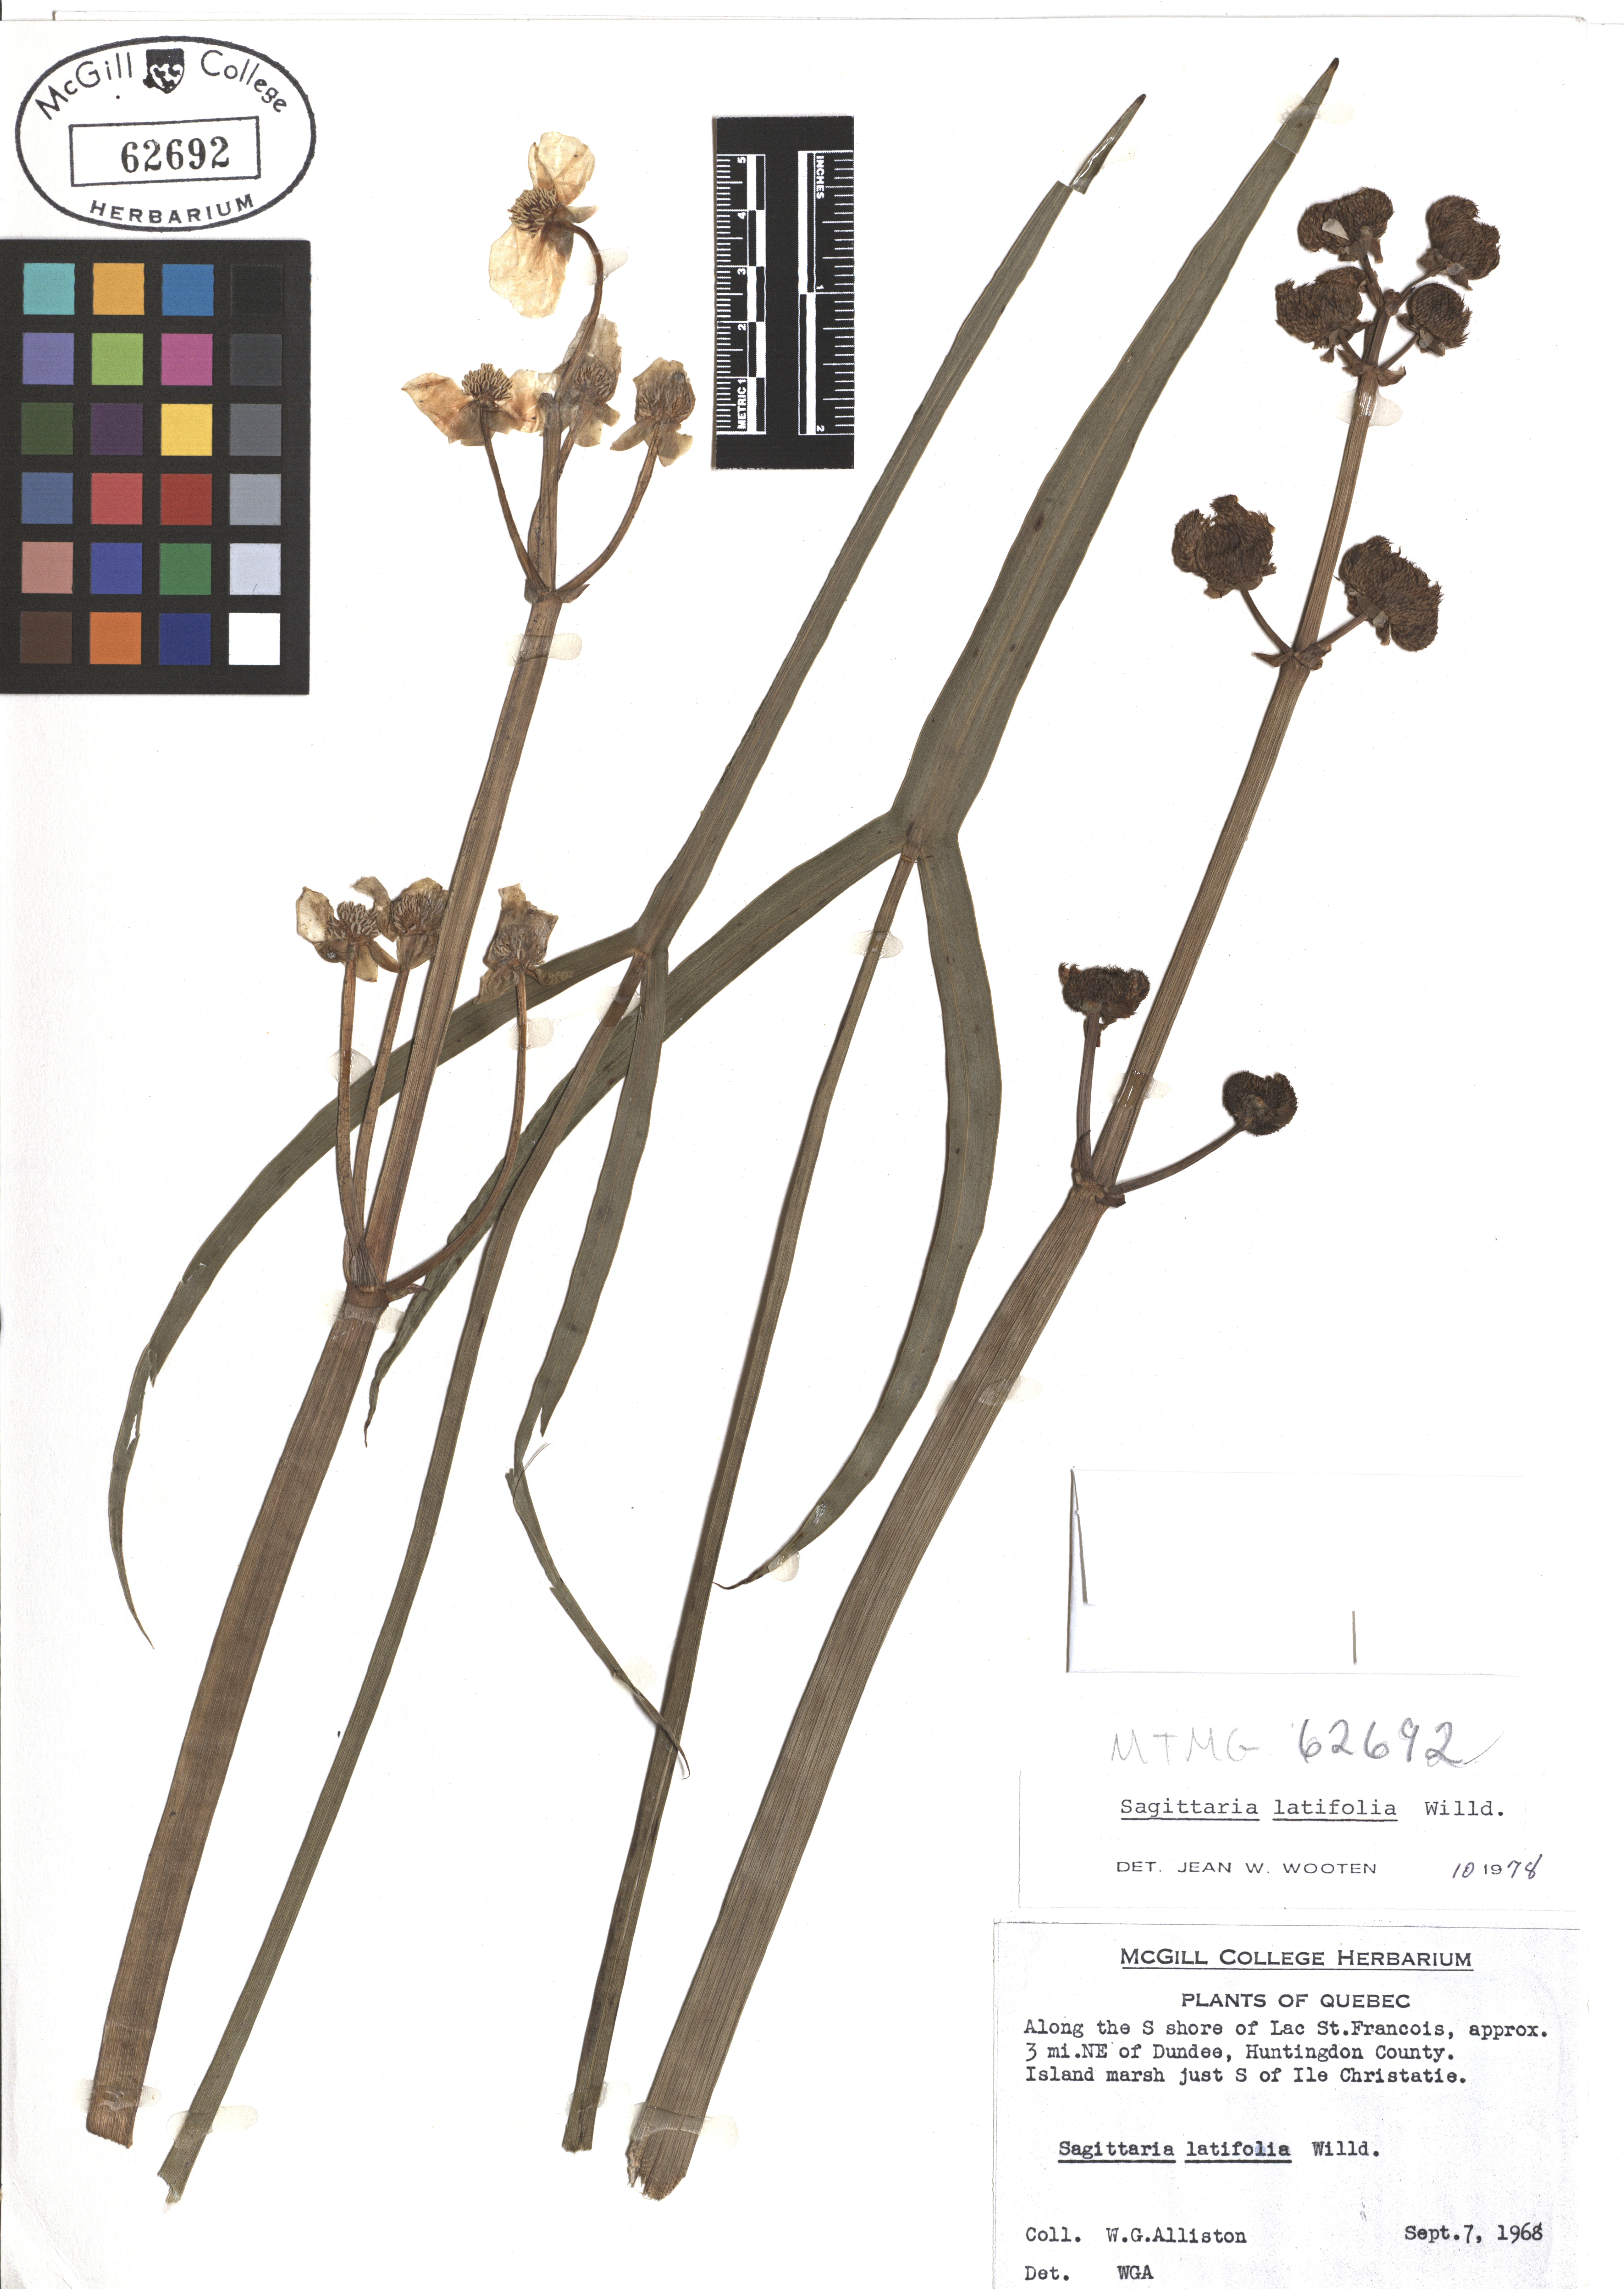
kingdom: Plantae
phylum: Tracheophyta
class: Liliopsida
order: Alismatales
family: Alismataceae
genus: Sagittaria
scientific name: Sagittaria latifolia
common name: Duck-potato
